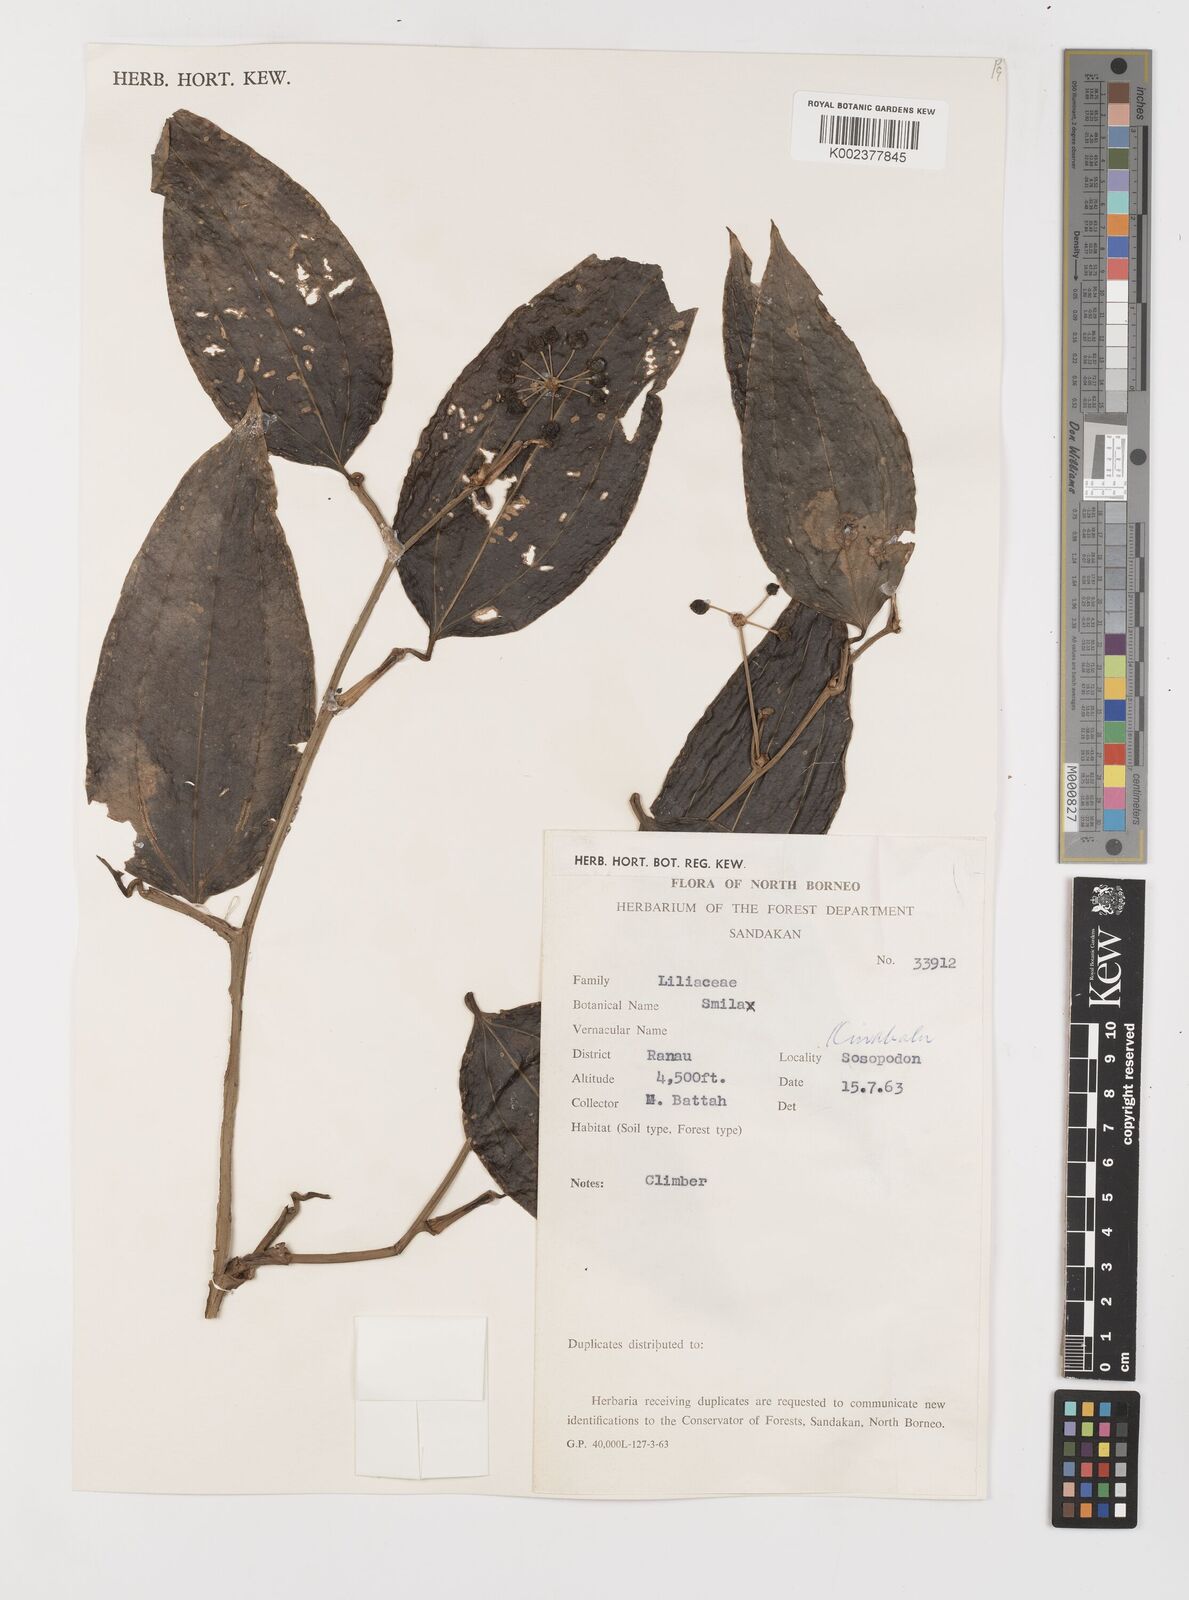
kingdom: Plantae
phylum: Tracheophyta
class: Liliopsida
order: Liliales
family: Smilacaceae
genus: Smilax
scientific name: Smilax
